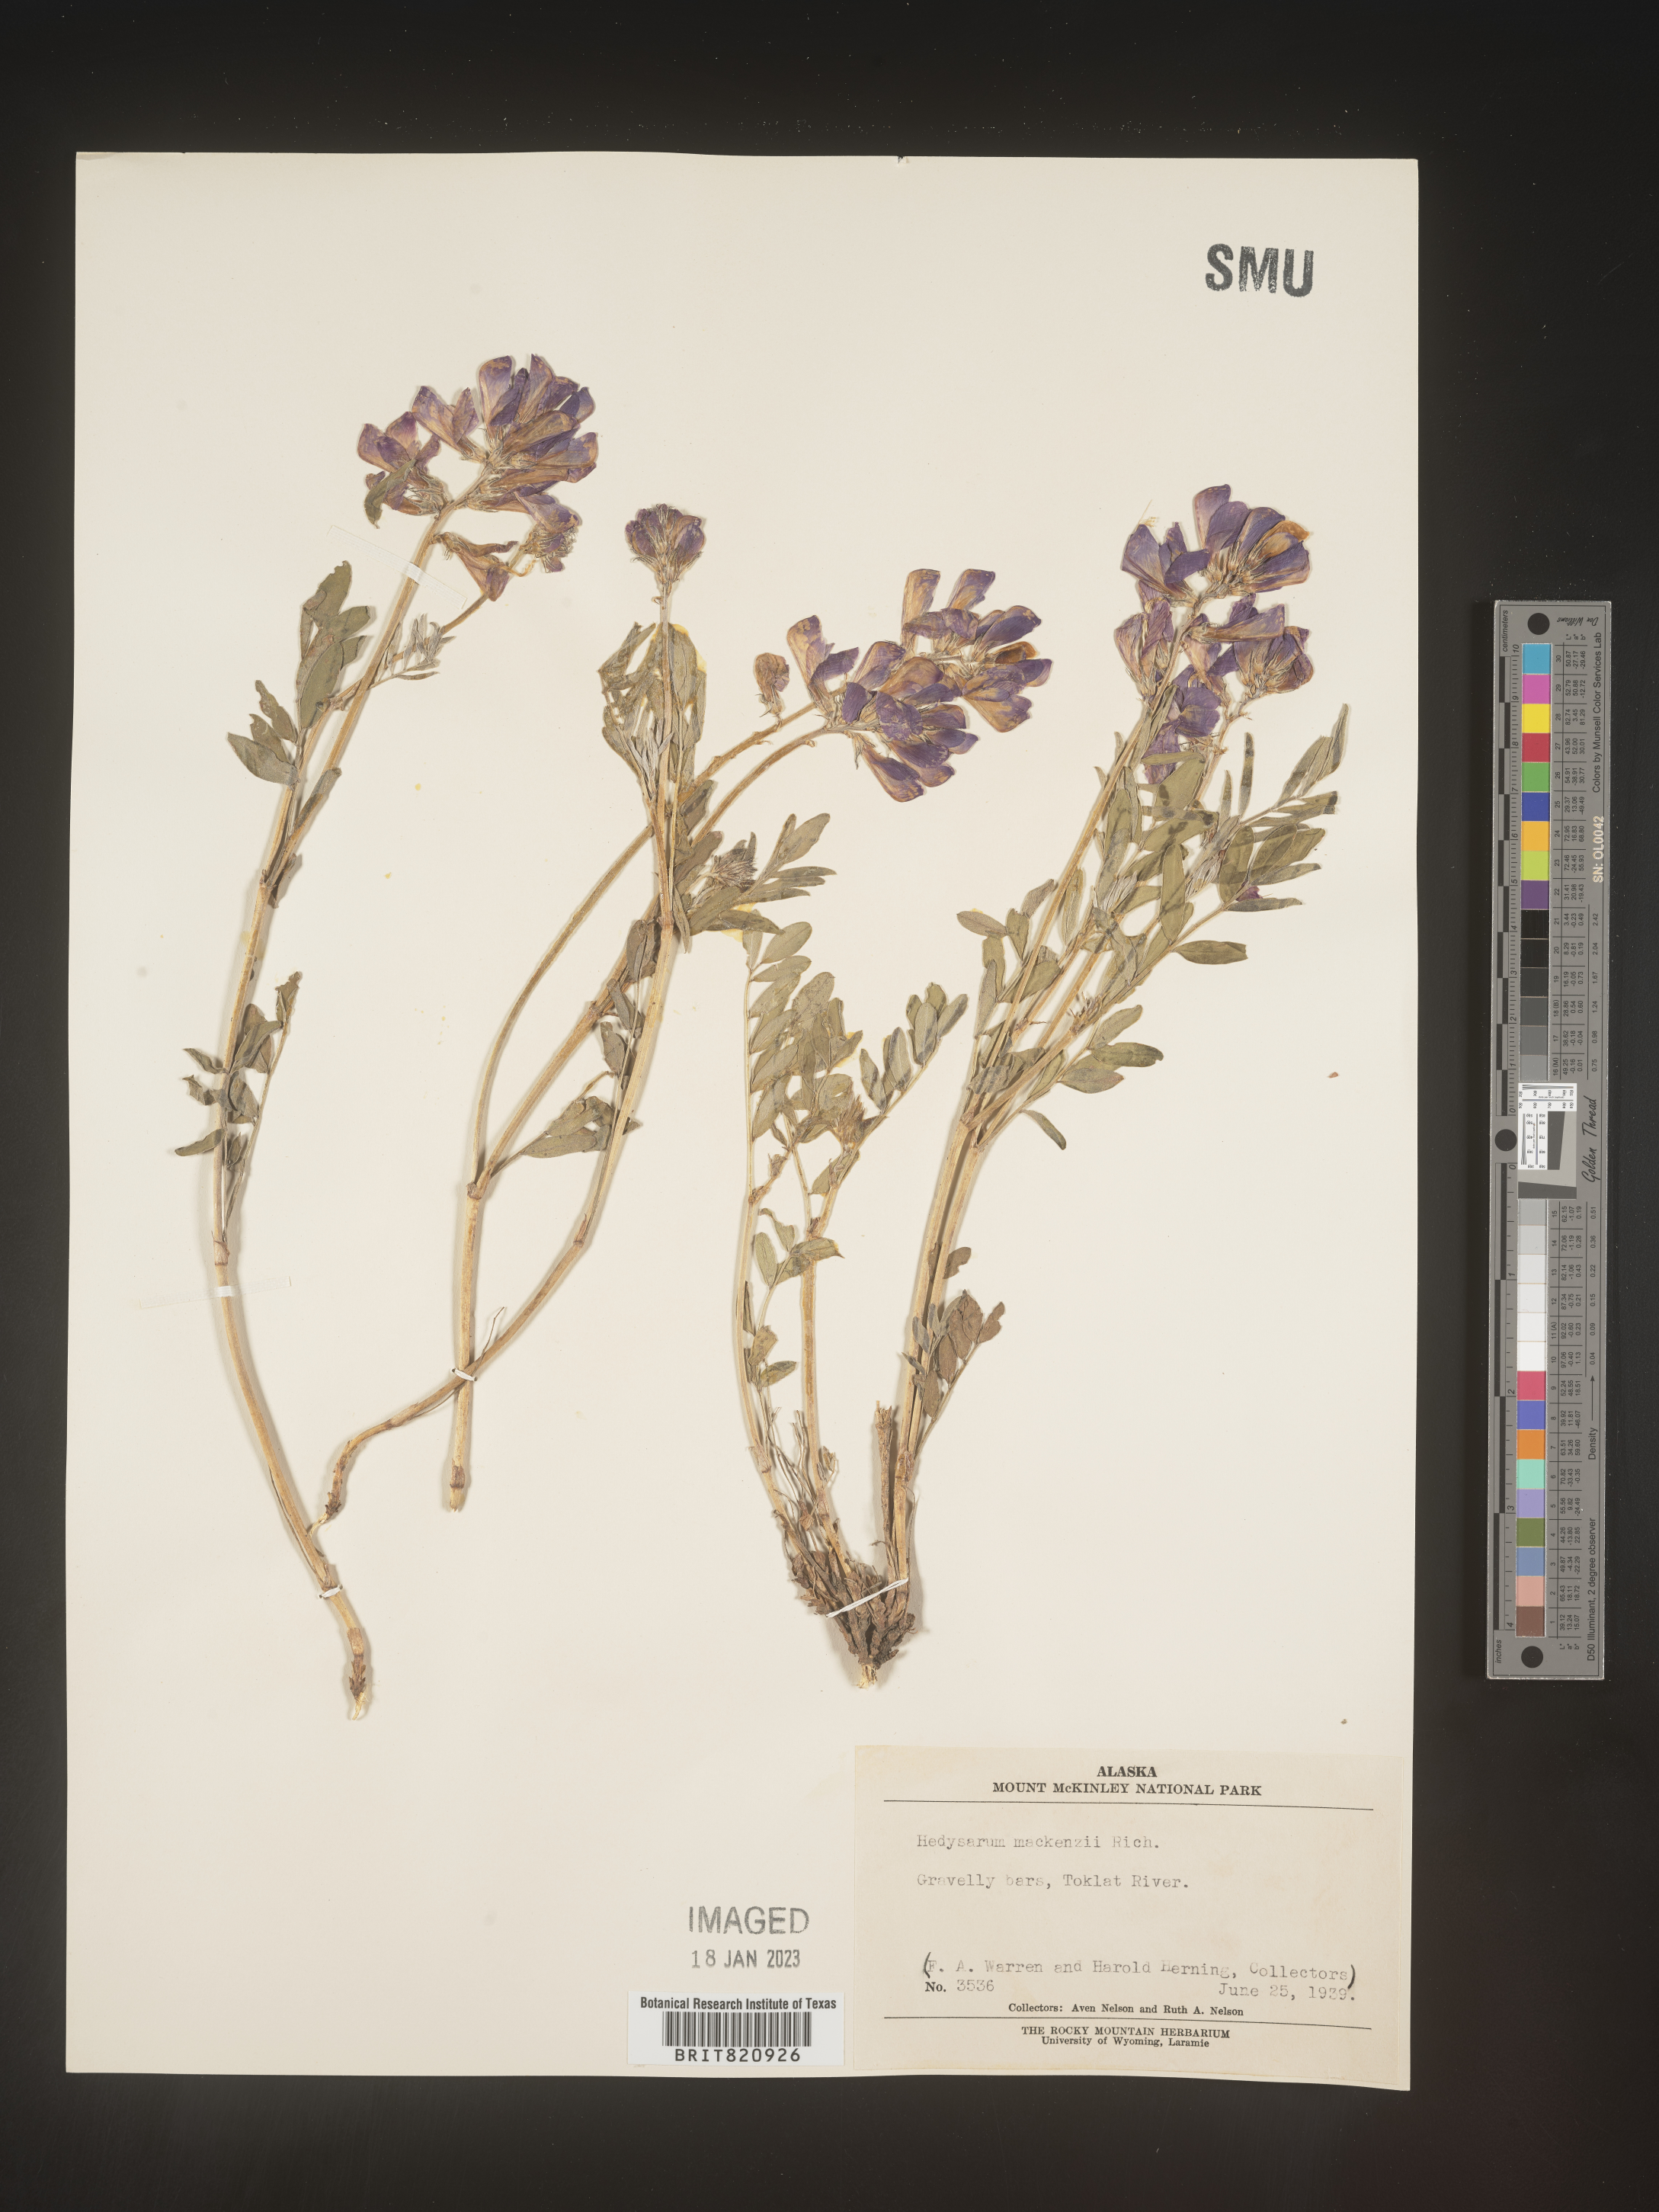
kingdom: Plantae
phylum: Tracheophyta
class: Magnoliopsida
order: Fabales
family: Fabaceae
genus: Hedysarum
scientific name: Hedysarum boreale
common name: Northern sweet-vetch
